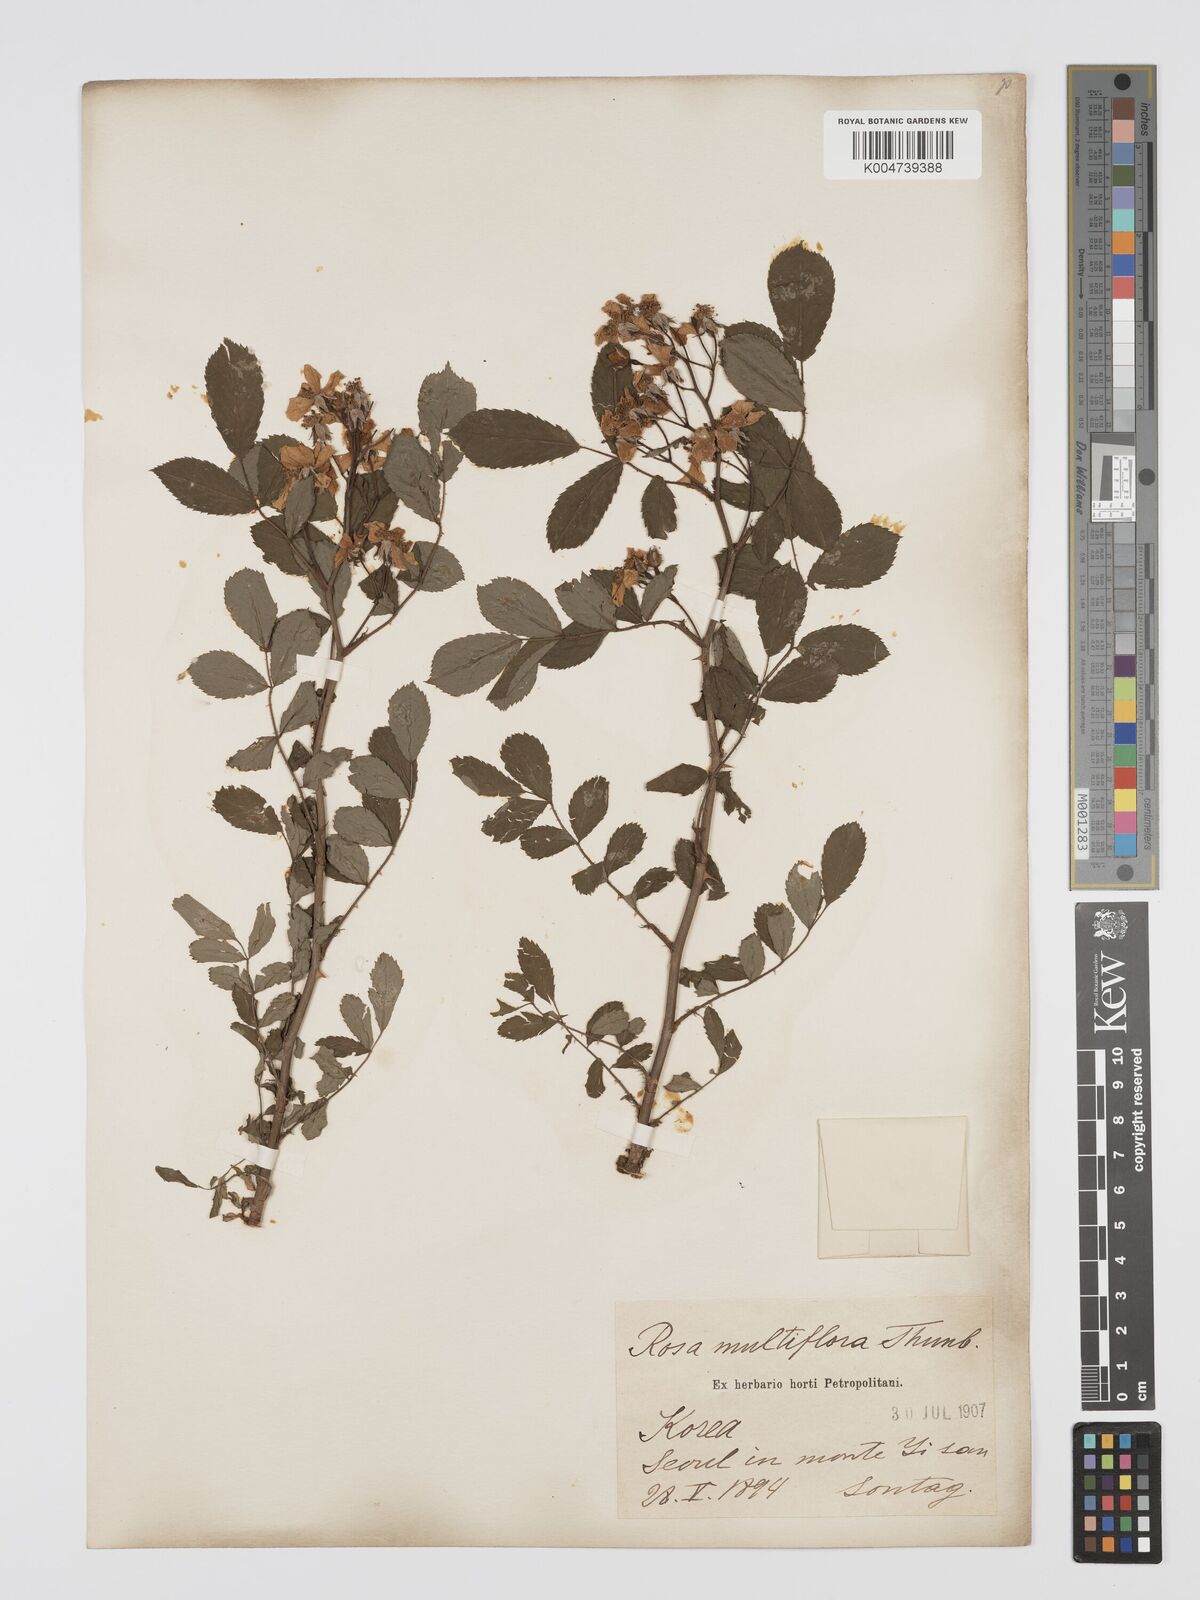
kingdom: Plantae
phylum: Tracheophyta
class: Magnoliopsida
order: Rosales
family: Rosaceae
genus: Rosa
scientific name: Rosa multiflora
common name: Multiflora rose
